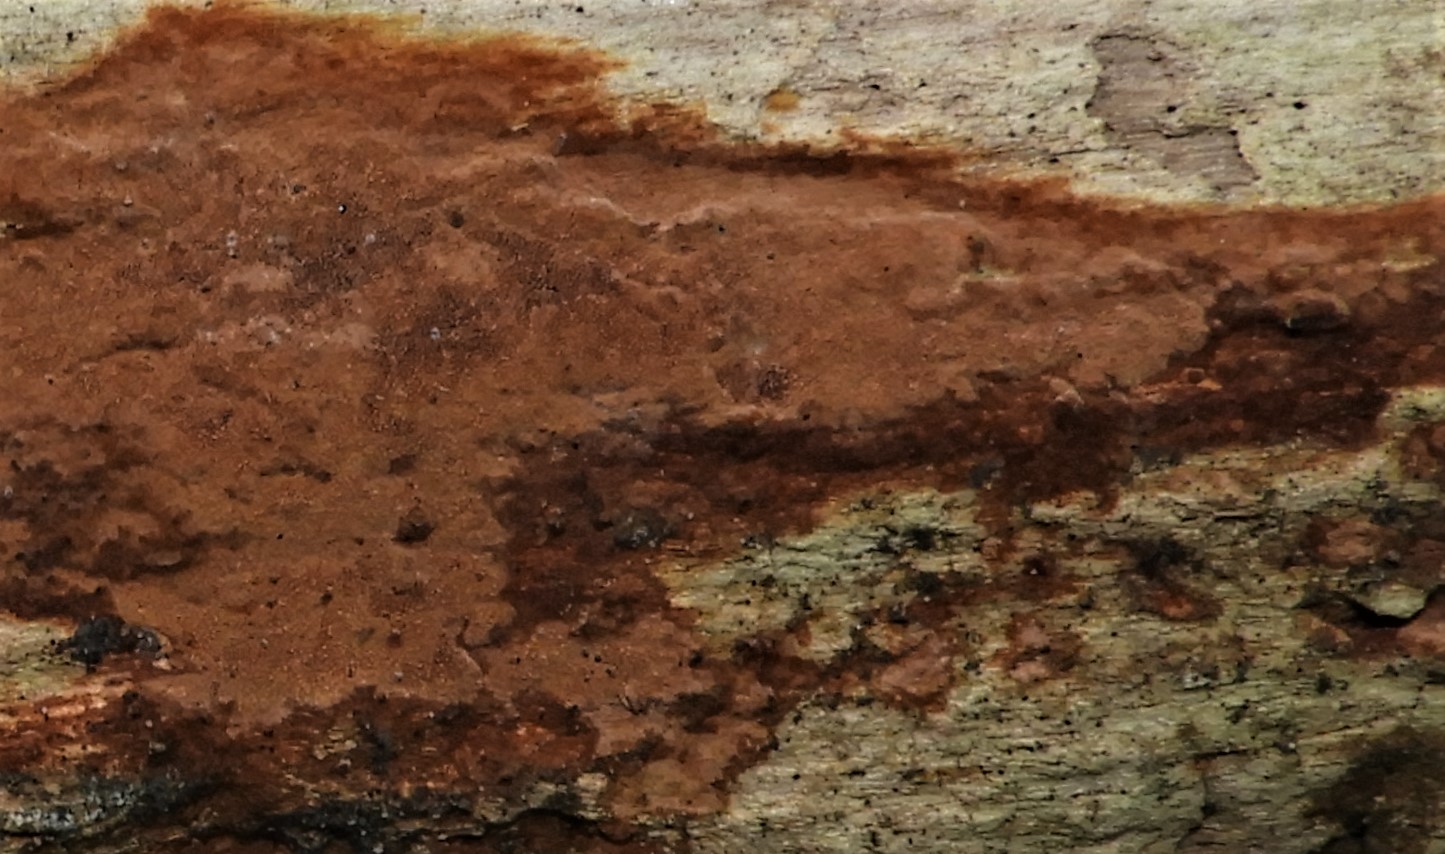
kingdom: Fungi
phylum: Basidiomycota
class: Agaricomycetes
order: Hymenochaetales
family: Hymenochaetaceae
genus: Fuscoporia
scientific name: Fuscoporia ferrea
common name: skorpe-ildporesvamp
